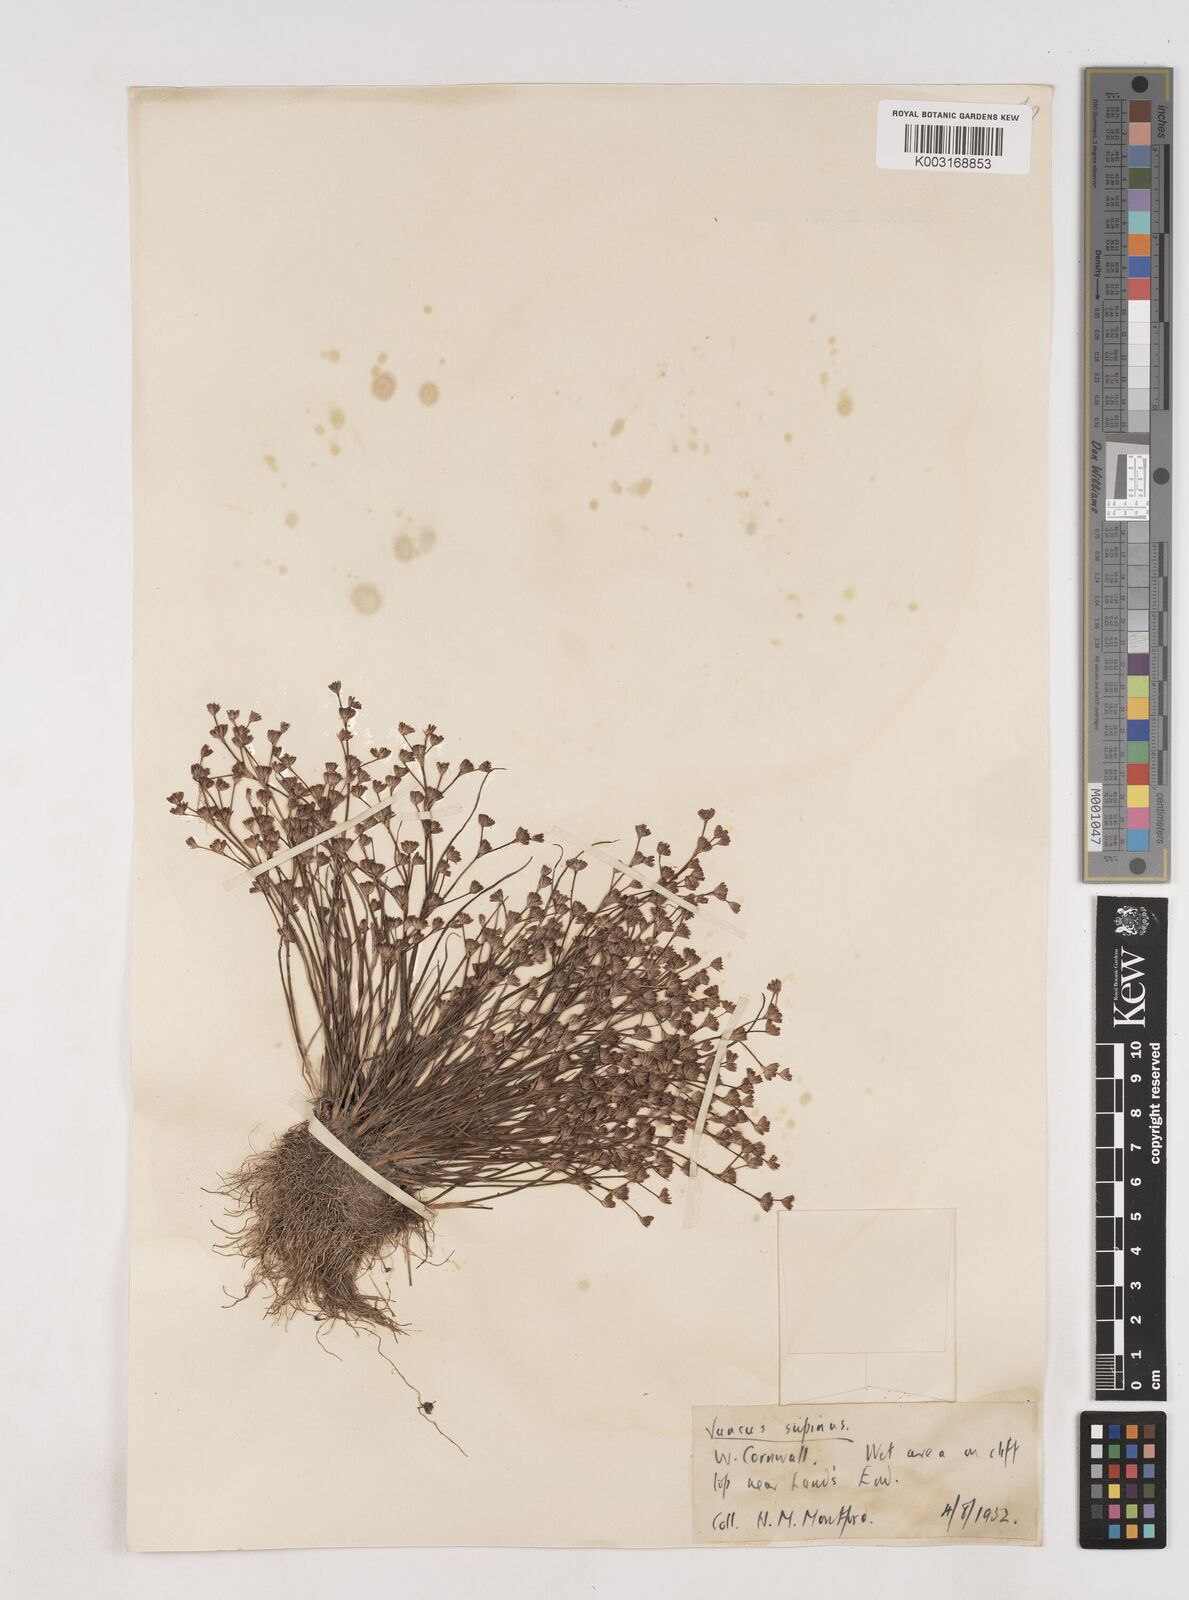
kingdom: Plantae
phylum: Tracheophyta
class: Liliopsida
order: Poales
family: Juncaceae
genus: Juncus
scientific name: Juncus bulbosus
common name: Bulbous rush
